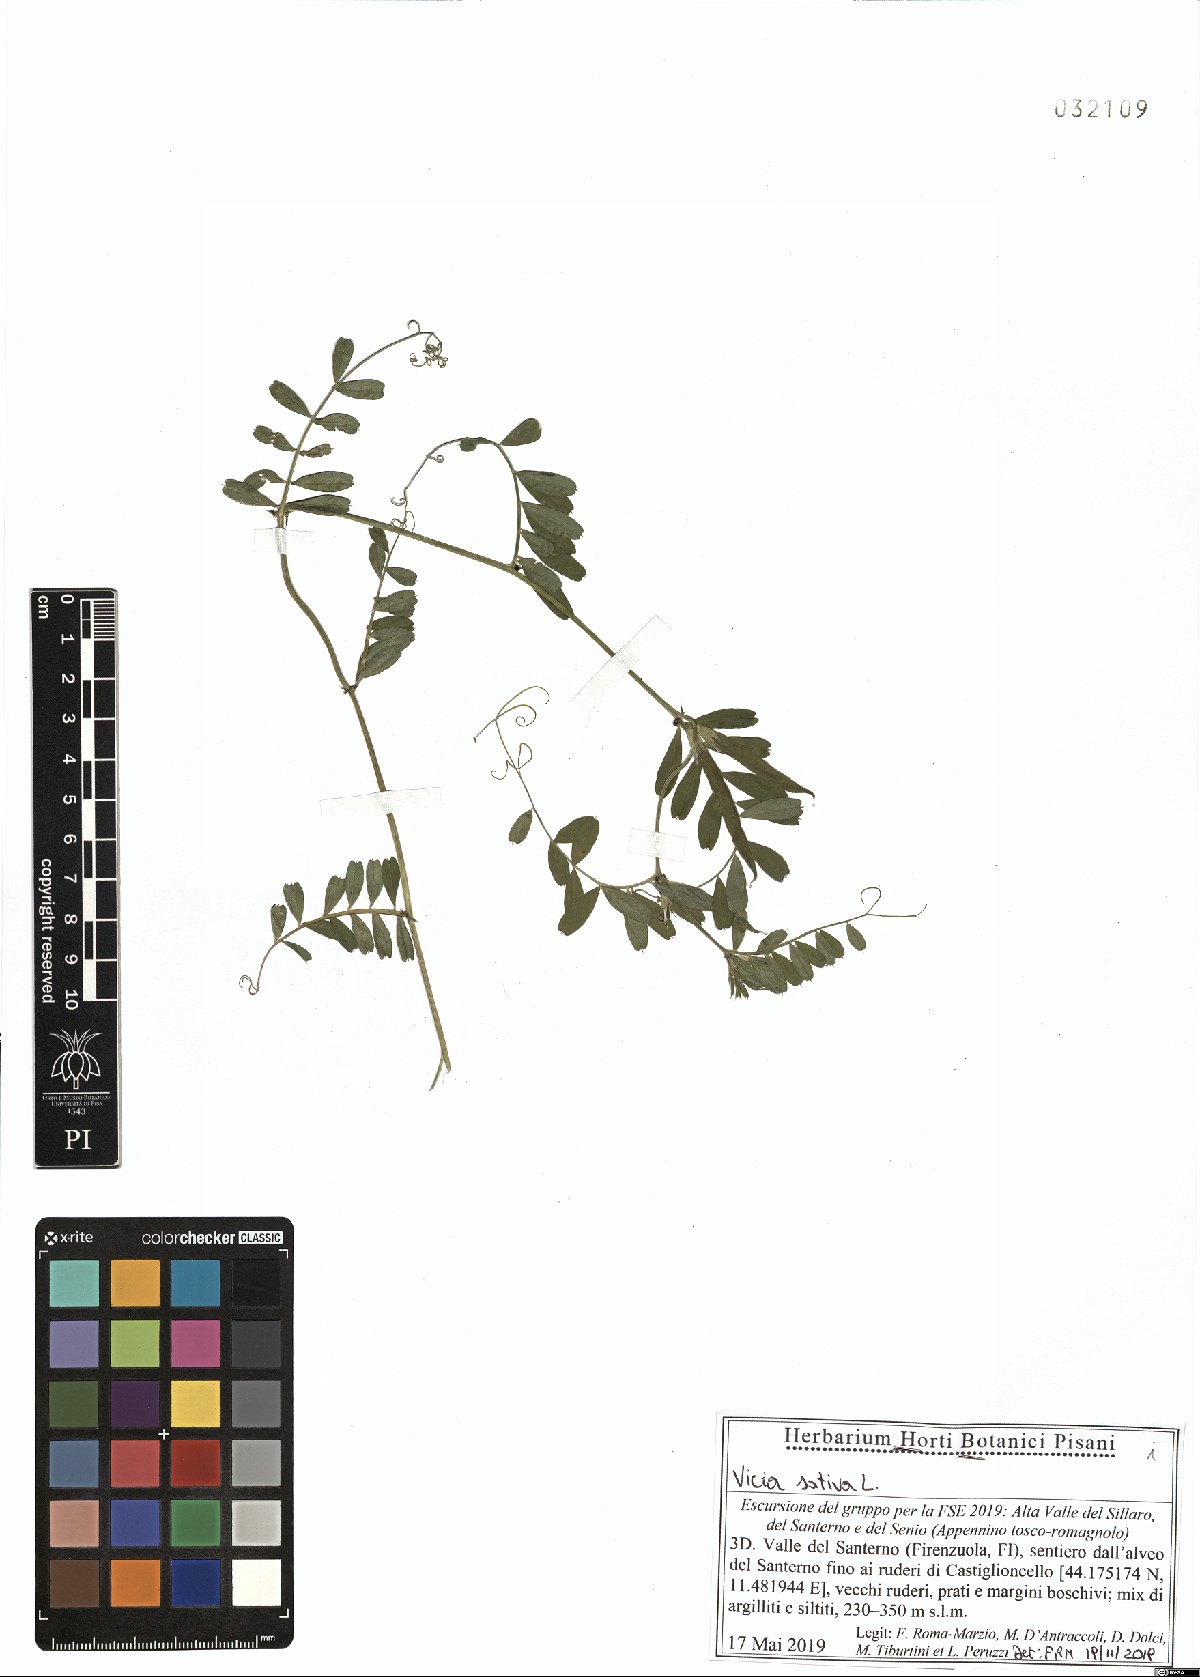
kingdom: Plantae
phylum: Tracheophyta
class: Magnoliopsida
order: Fabales
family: Fabaceae
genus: Vicia
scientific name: Vicia sativa
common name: Garden vetch
